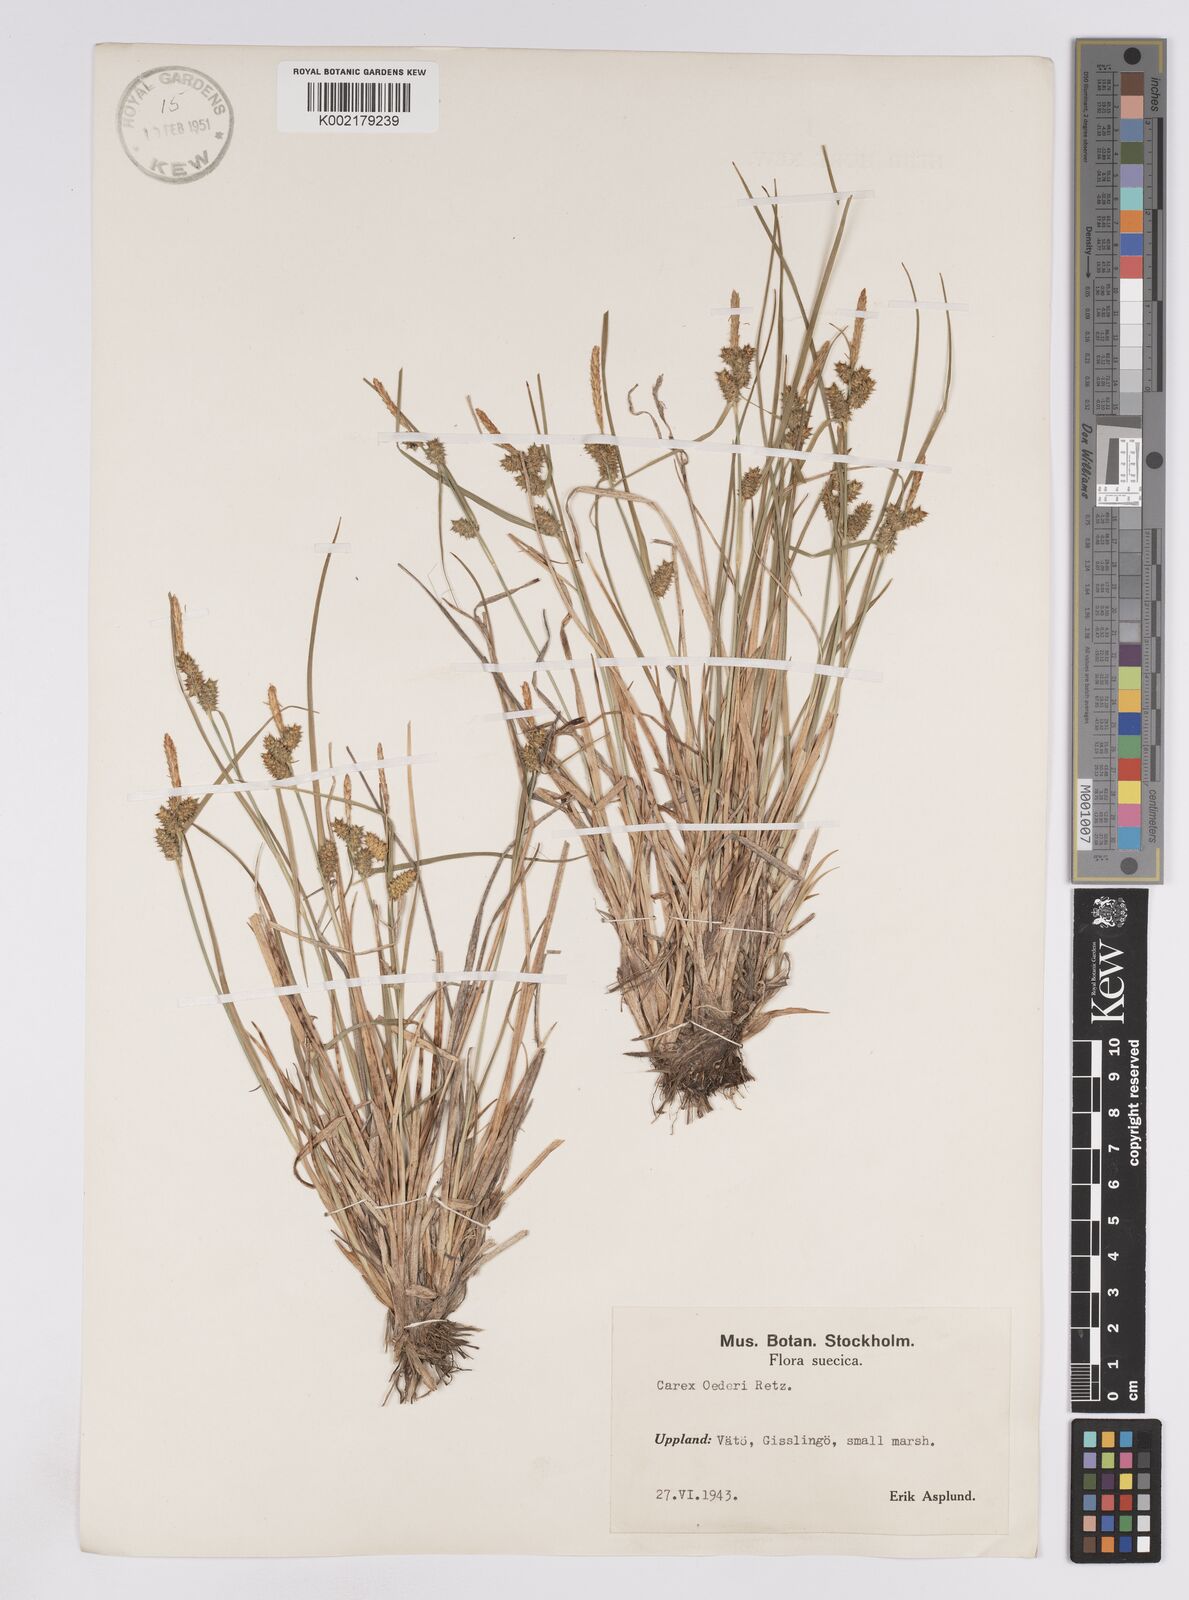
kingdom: Plantae
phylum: Tracheophyta
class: Liliopsida
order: Poales
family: Cyperaceae
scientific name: Cyperaceae
